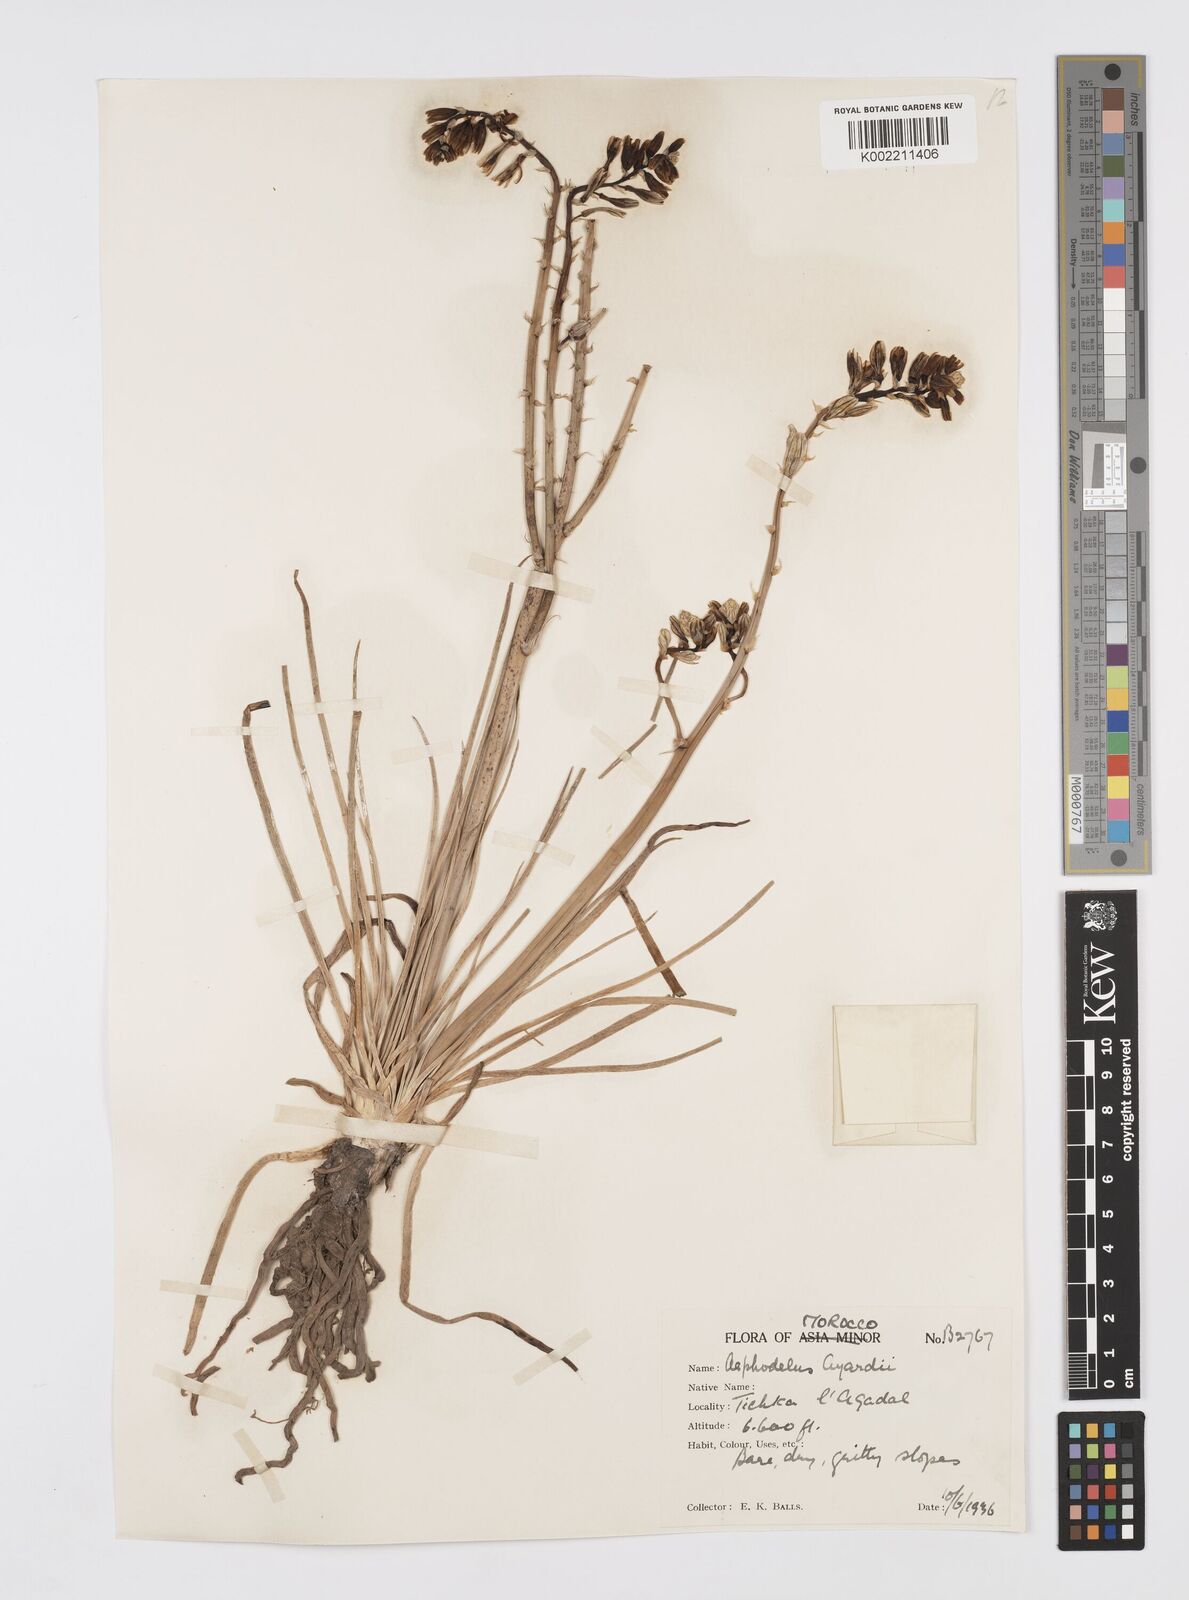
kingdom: Plantae
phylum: Tracheophyta
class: Liliopsida
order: Asparagales
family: Asphodelaceae
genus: Asphodelus
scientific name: Asphodelus fistulosus
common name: Onionweed
